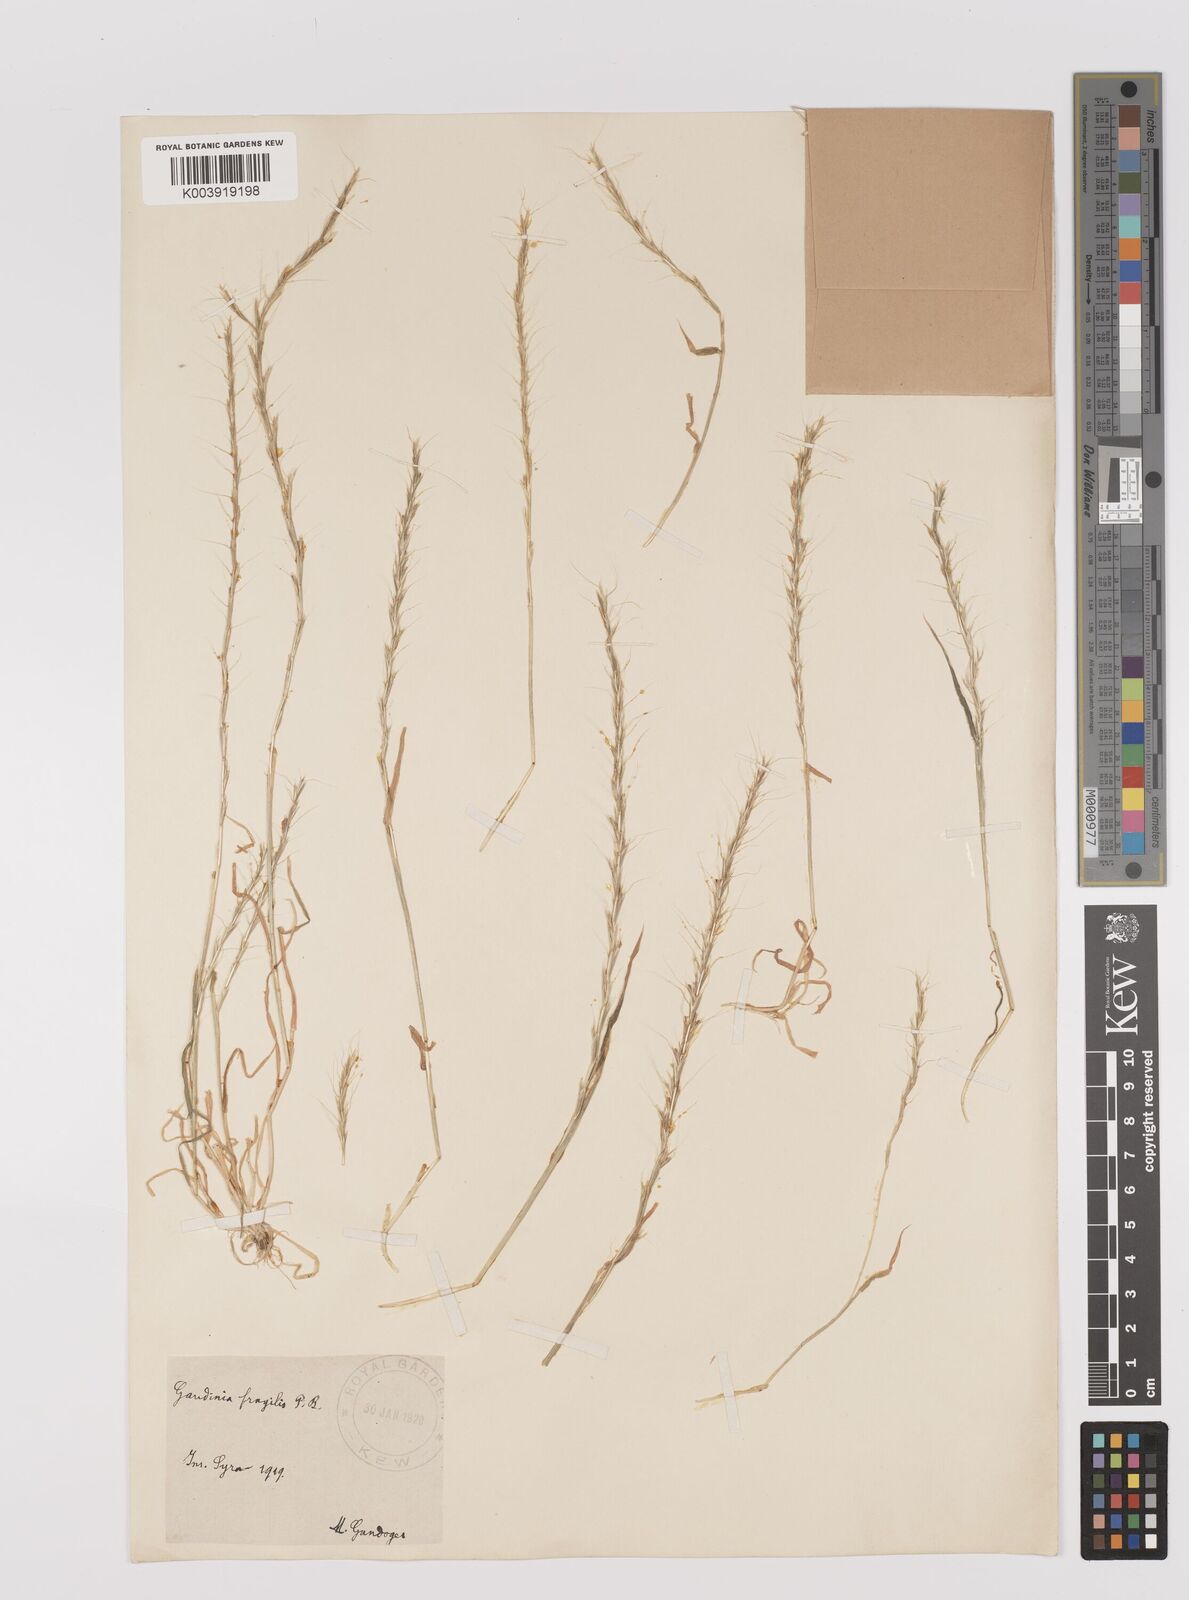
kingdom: Plantae
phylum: Tracheophyta
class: Liliopsida
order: Poales
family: Poaceae
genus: Gaudinia
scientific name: Gaudinia fragilis
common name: French oat-grass
